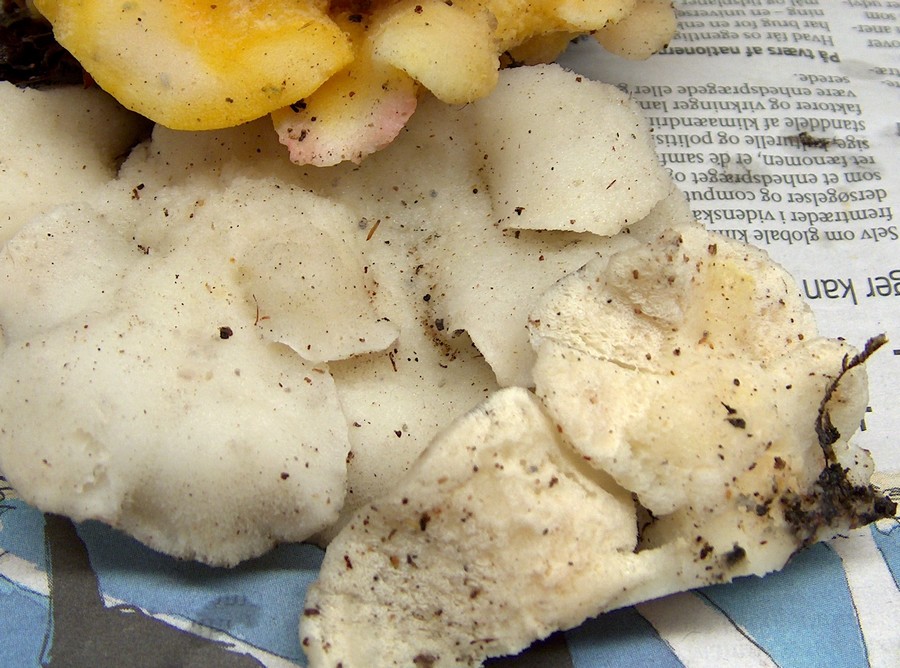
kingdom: Fungi
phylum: Basidiomycota
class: Agaricomycetes
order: Polyporales
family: Incrustoporiaceae
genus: Tyromyces
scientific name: Tyromyces chioneus
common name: stor blødporesvamp
